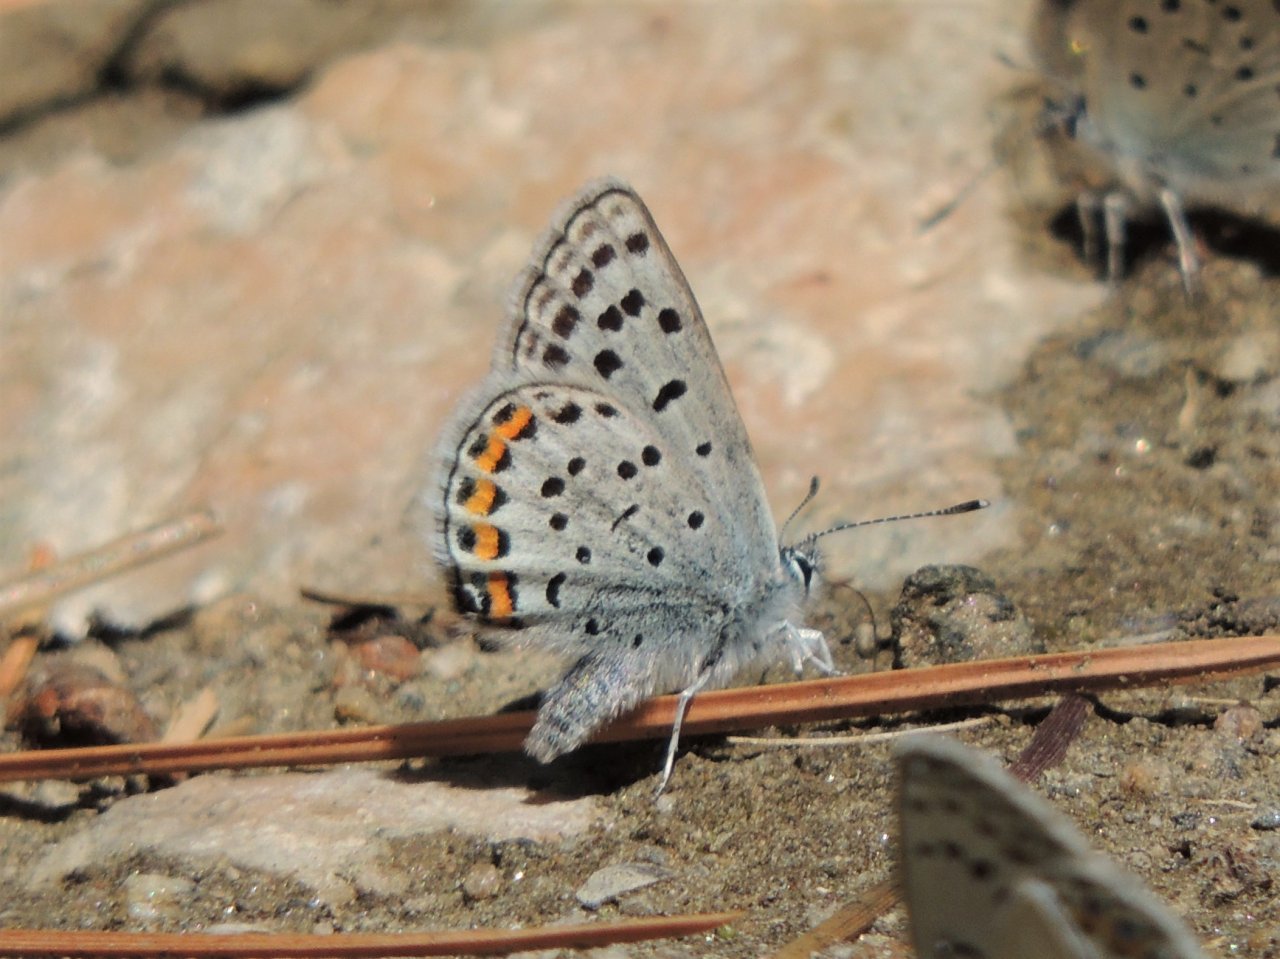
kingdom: Animalia
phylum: Arthropoda
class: Insecta
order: Lepidoptera
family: Lycaenidae
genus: Plebejus
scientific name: Plebejus lupini
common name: Lupine Blue
